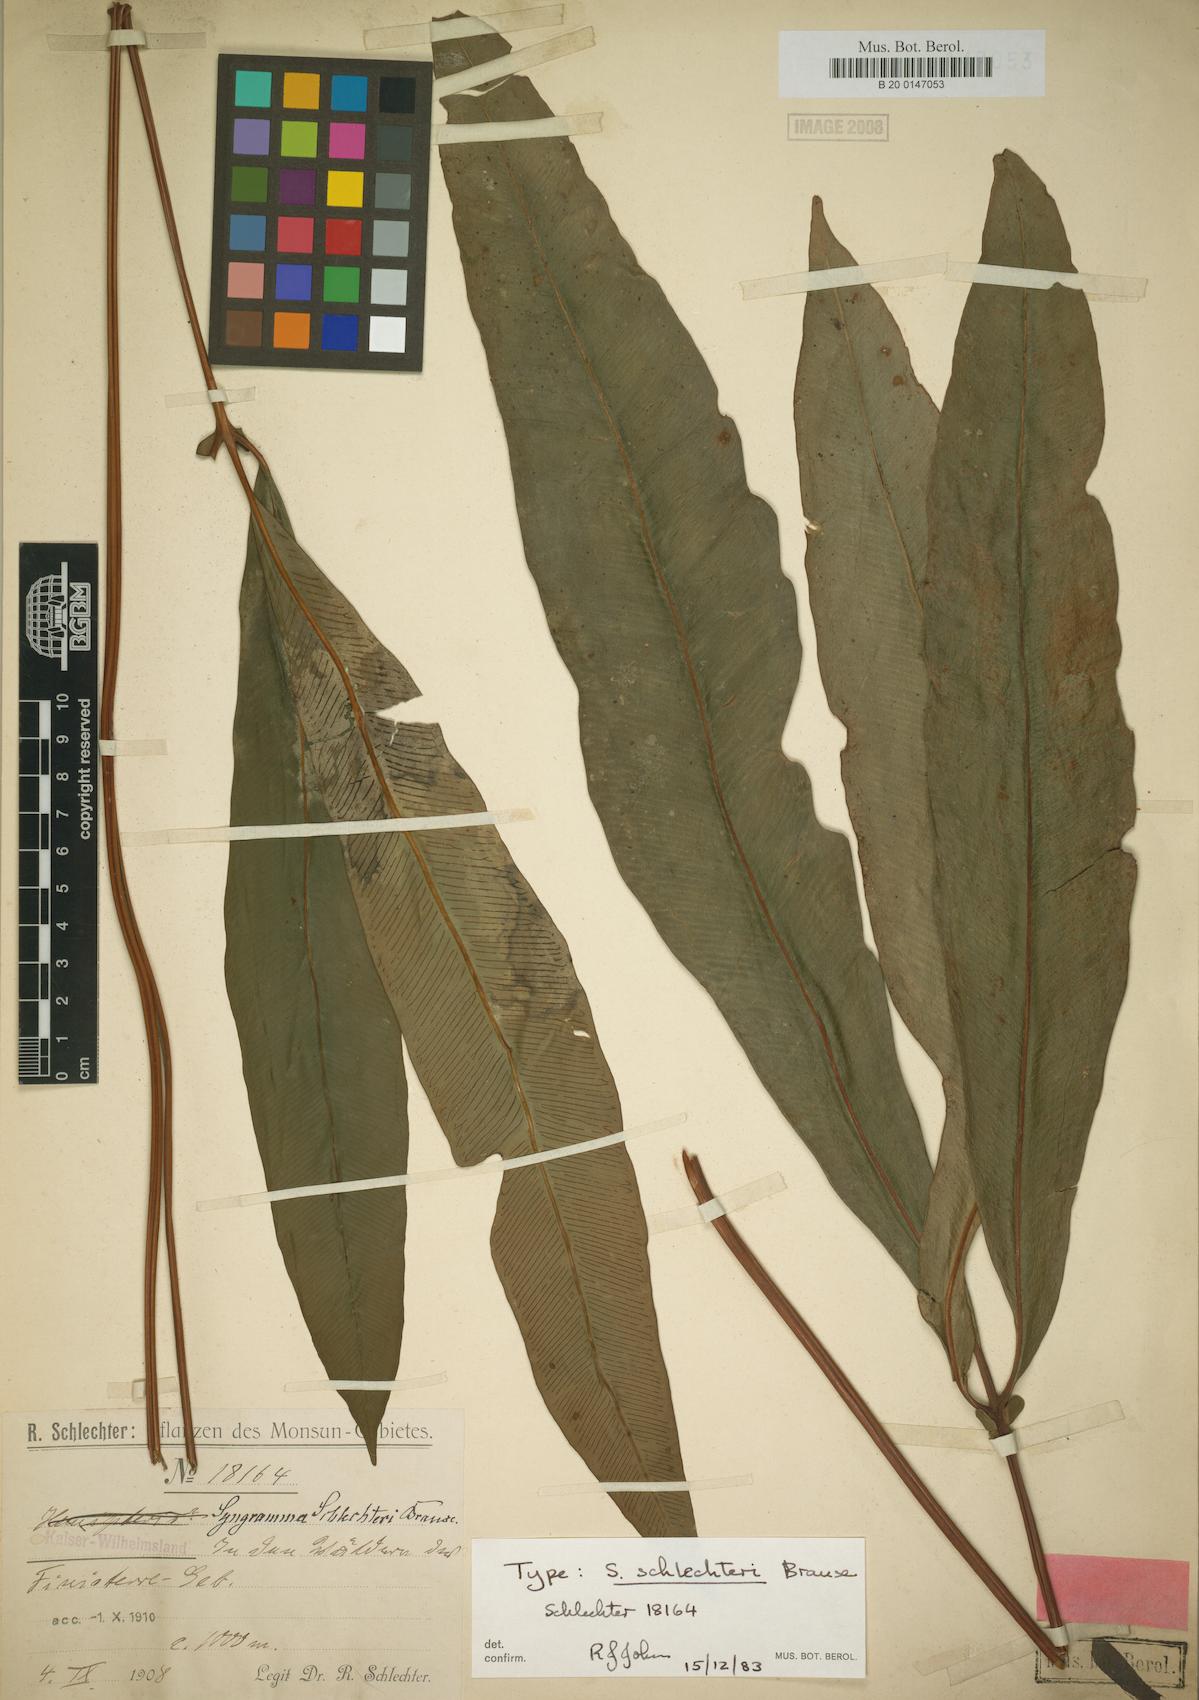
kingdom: Plantae
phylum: Tracheophyta
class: Polypodiopsida
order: Polypodiales
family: Pteridaceae
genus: Syngramma
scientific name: Syngramma quinata
